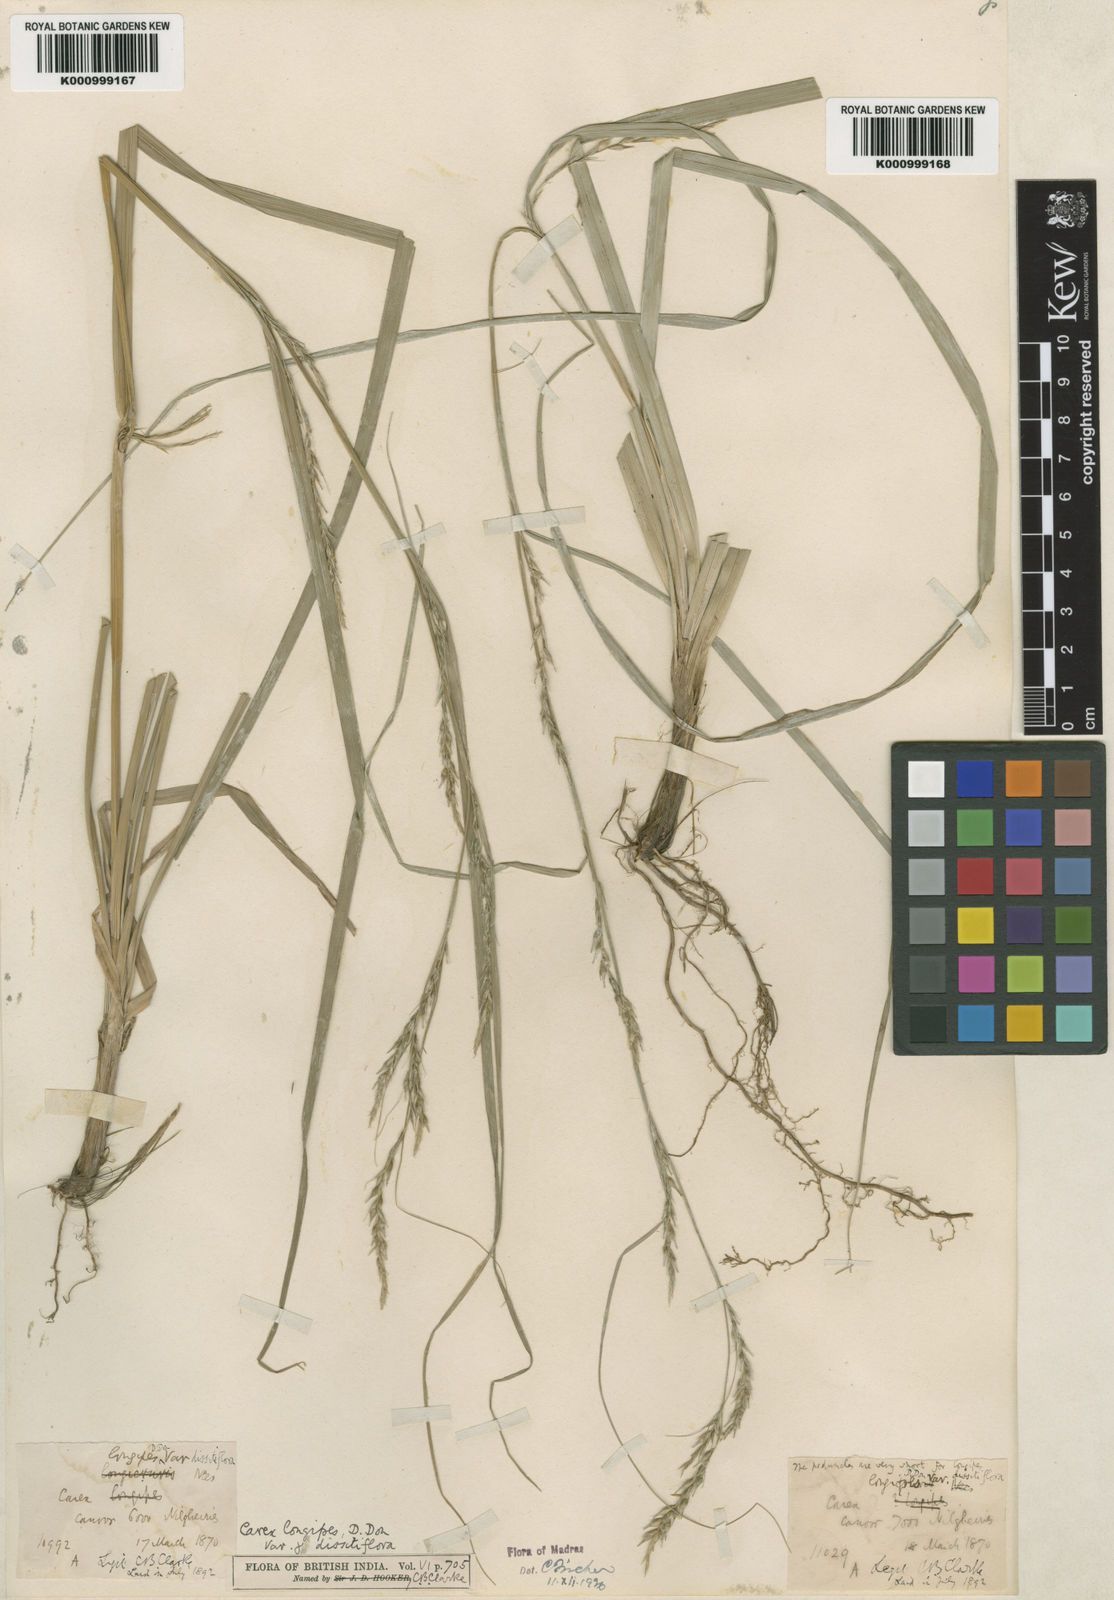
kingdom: Plantae
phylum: Tracheophyta
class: Liliopsida
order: Poales
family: Cyperaceae
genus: Carex
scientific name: Carex longipes
